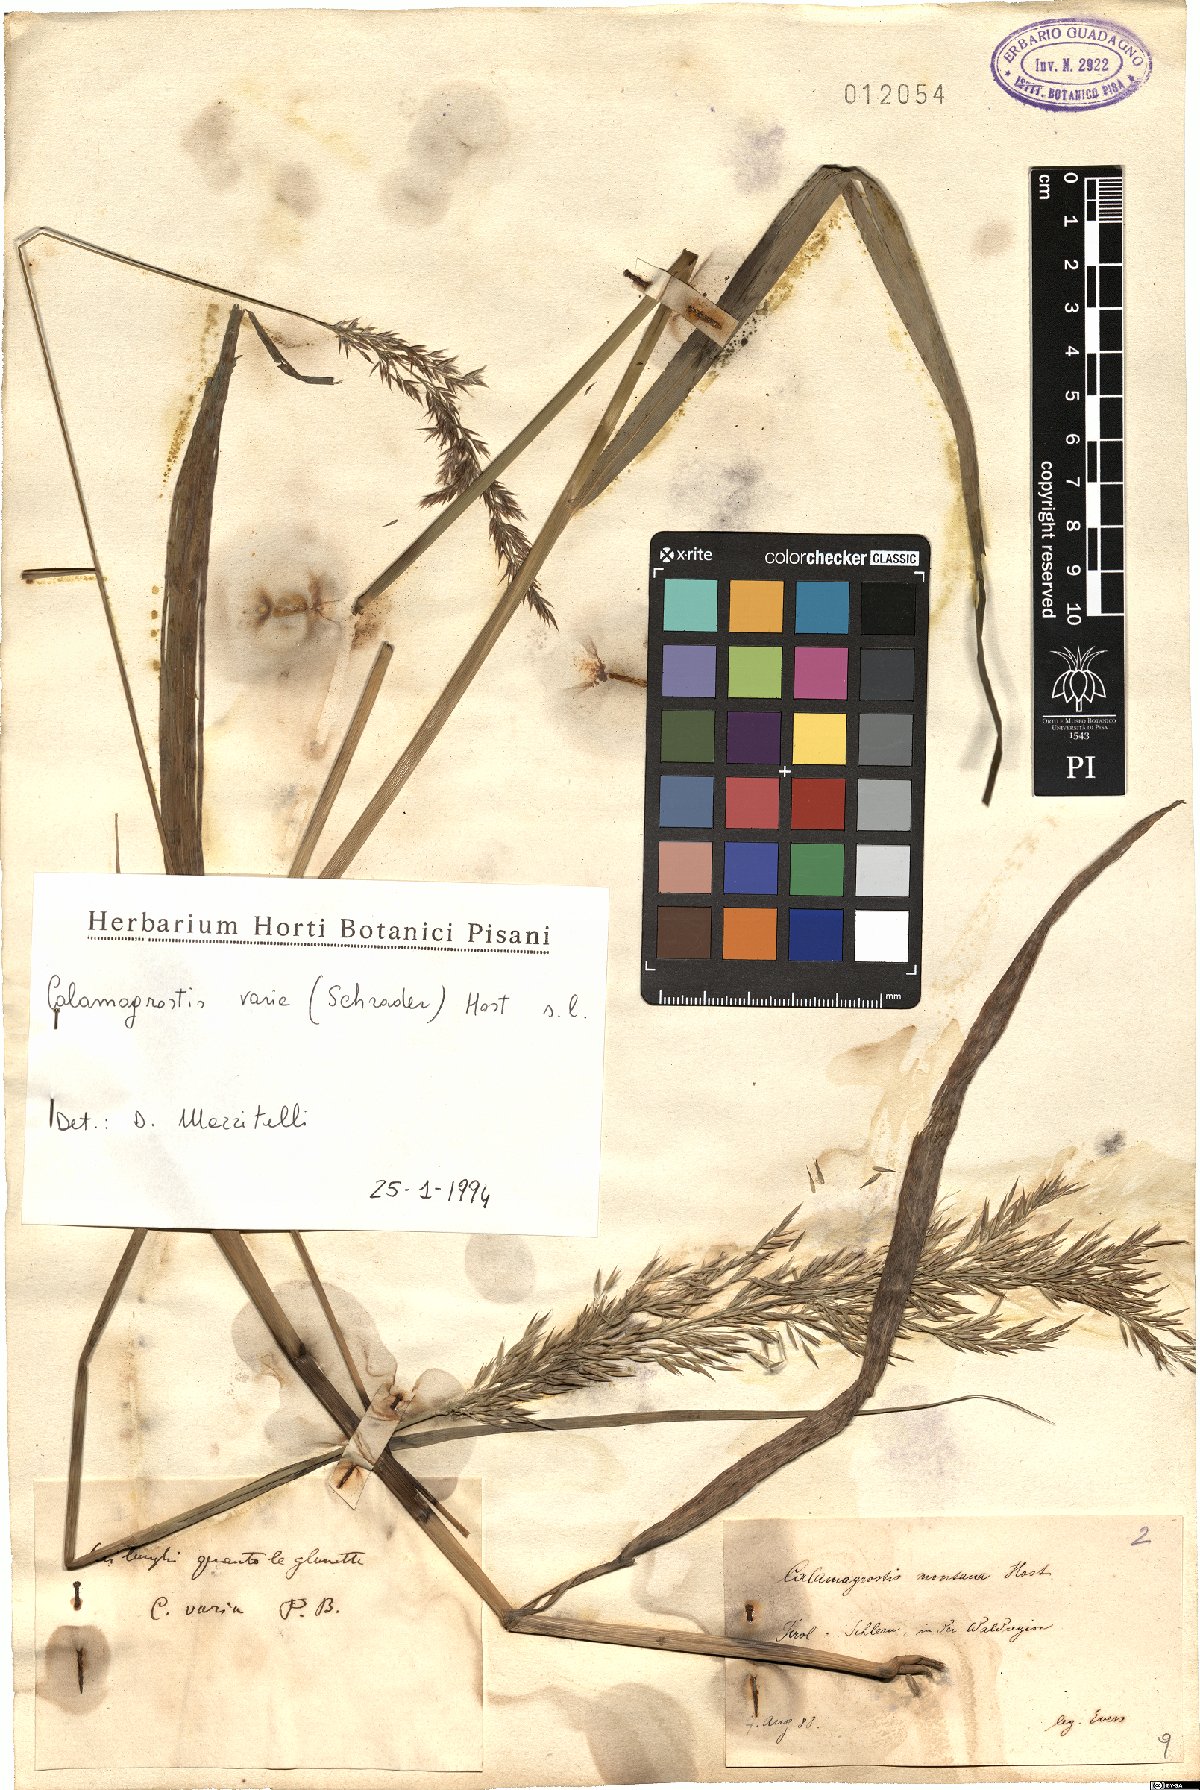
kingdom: Plantae
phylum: Tracheophyta
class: Liliopsida
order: Poales
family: Poaceae
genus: Calamagrostis
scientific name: Calamagrostis varia
